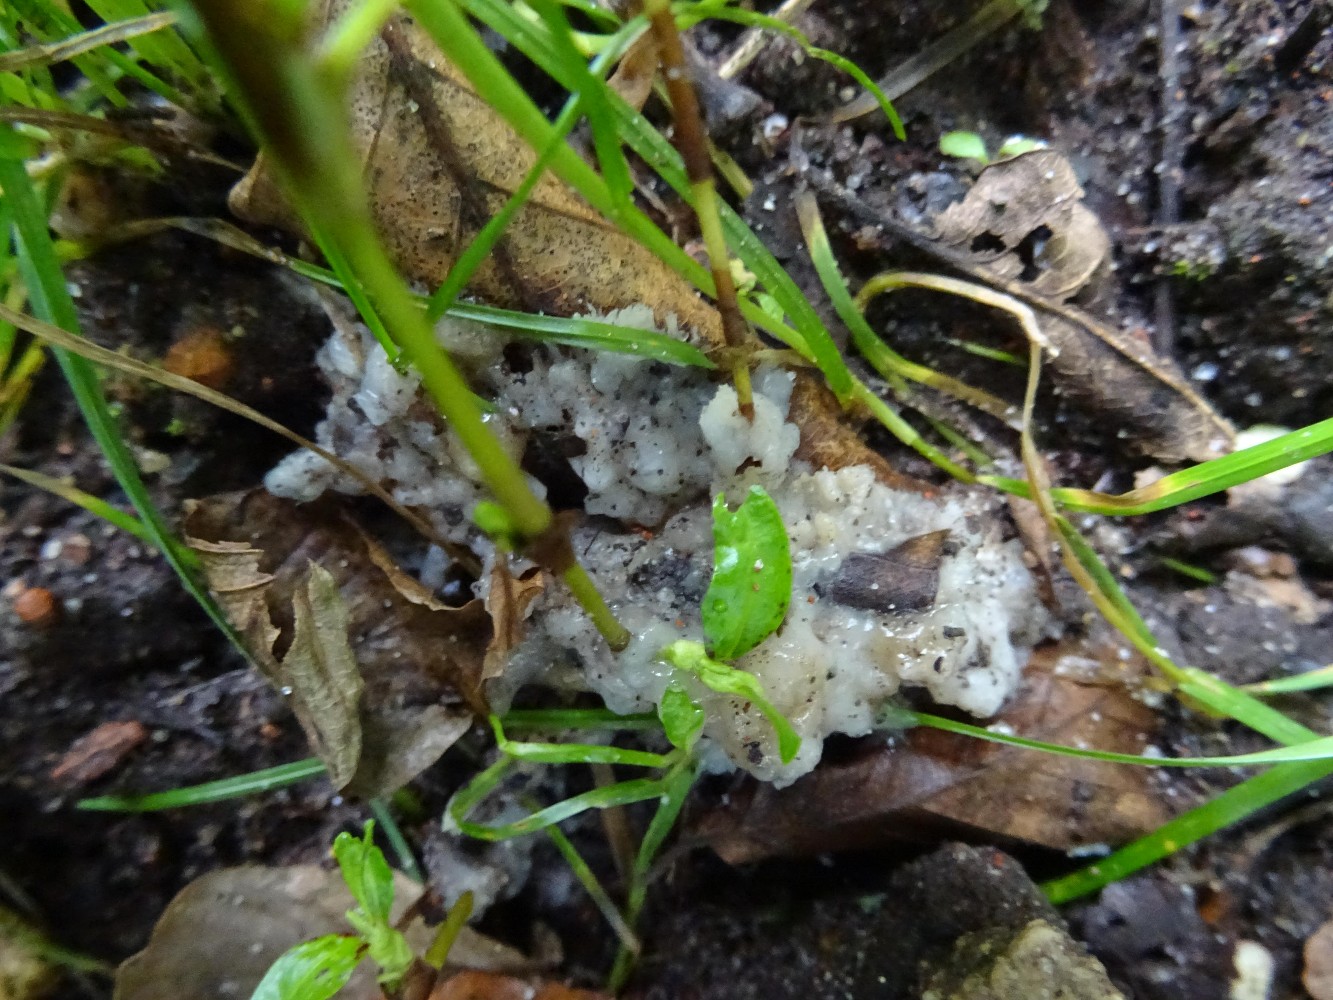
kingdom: Fungi
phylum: Basidiomycota
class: Agaricomycetes
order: Sebacinales
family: Sebacinaceae
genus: Sebacina
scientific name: Sebacina incrustans
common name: krybende bævretalg
